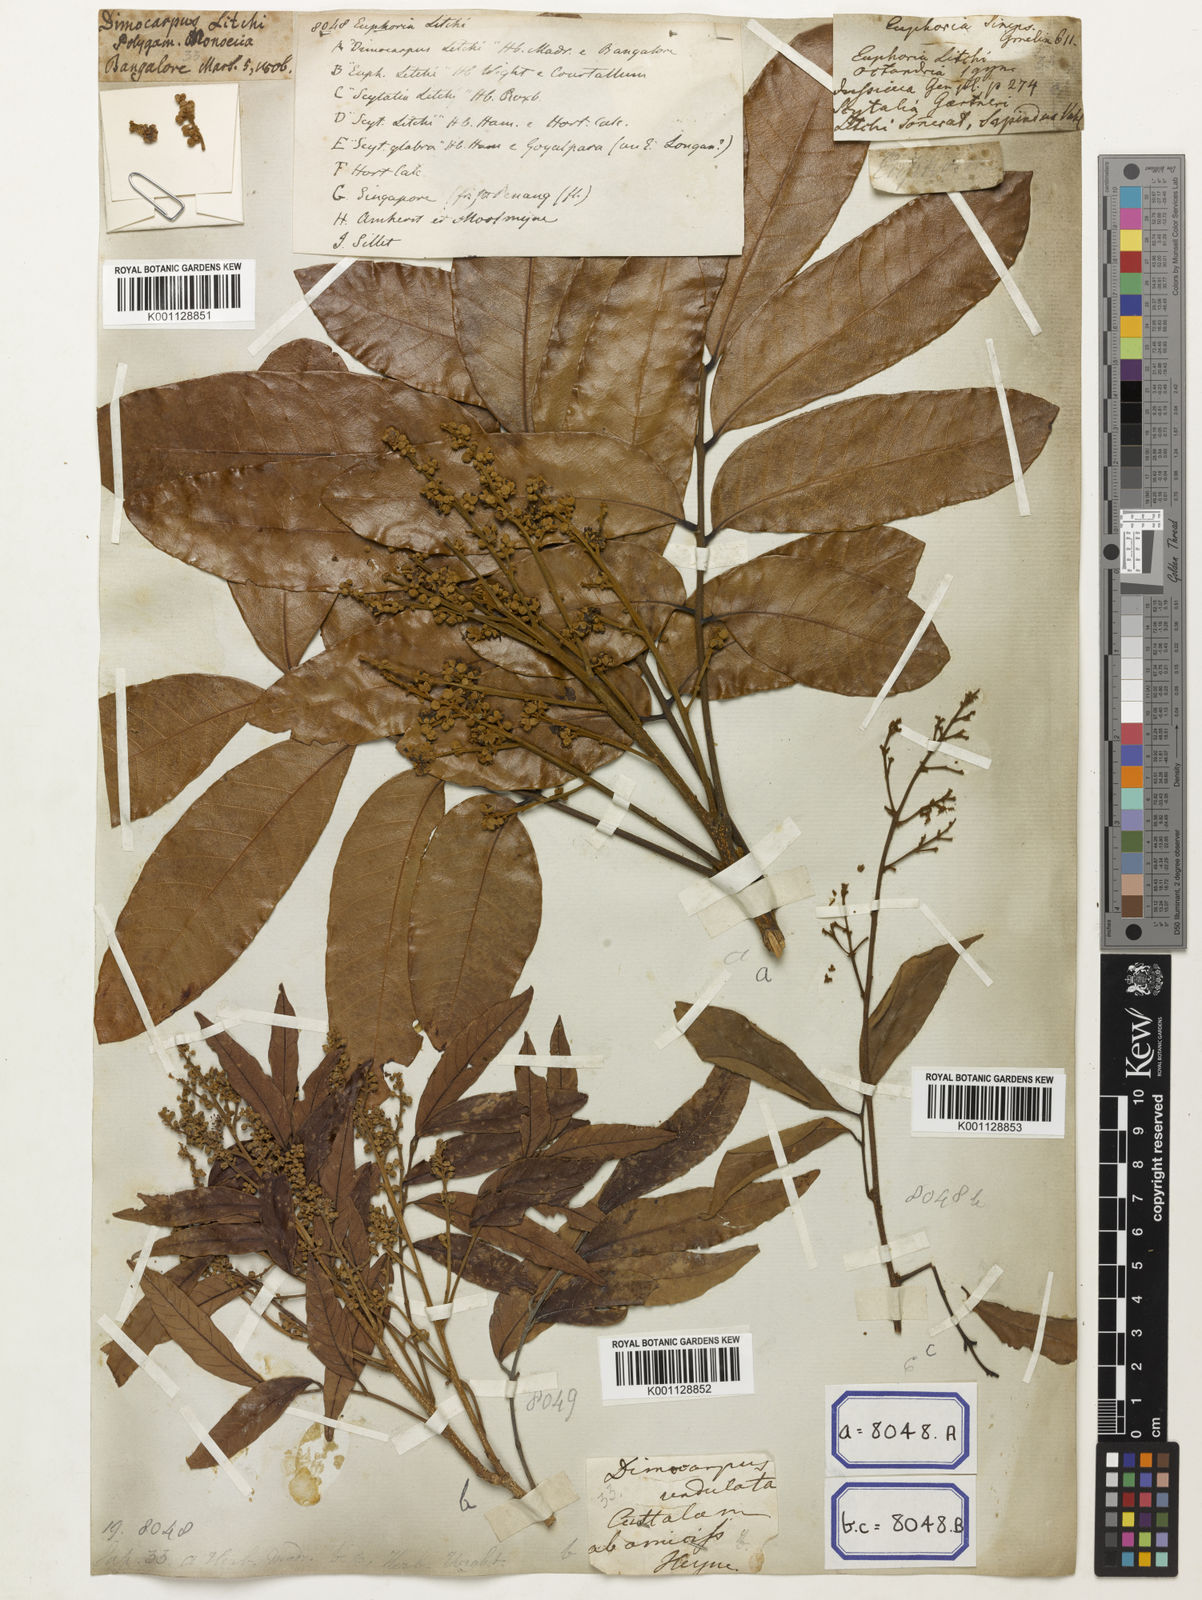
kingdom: Animalia
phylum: Arthropoda
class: Insecta
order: Coleoptera
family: Scarabaeidae
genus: Euphoria
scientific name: Euphoria
